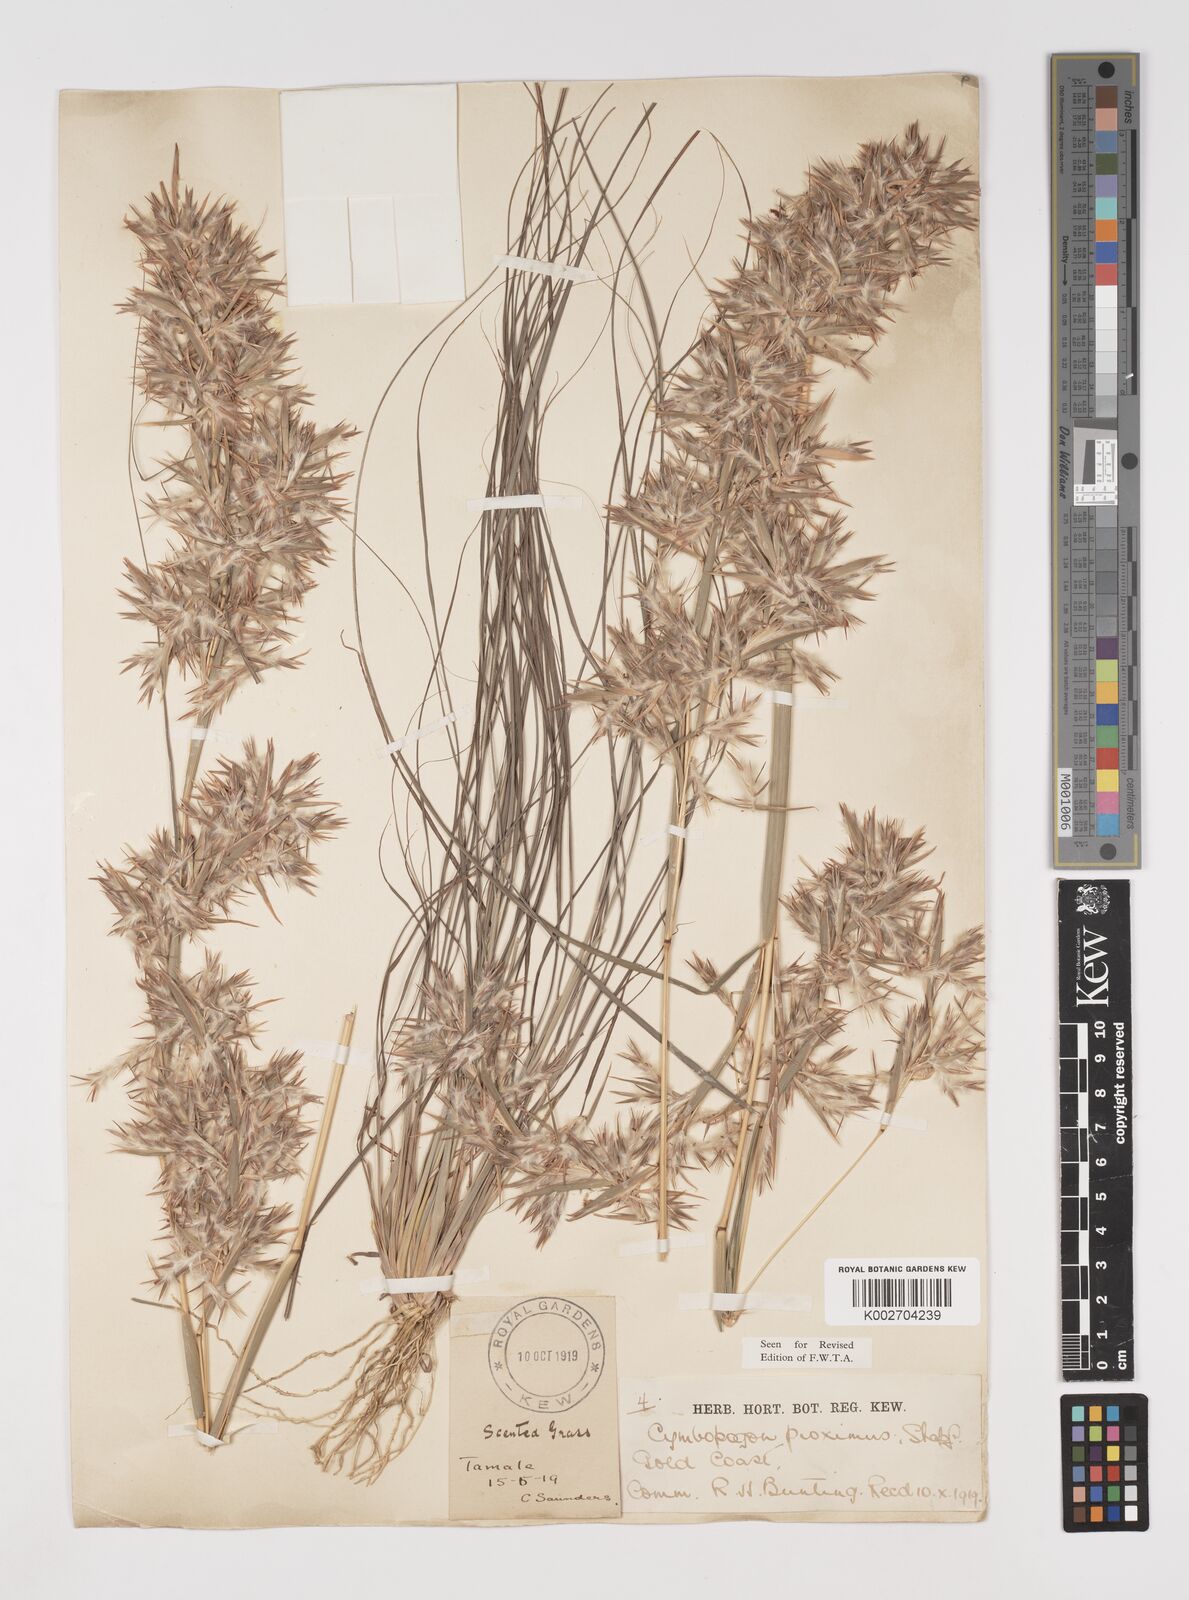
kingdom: Plantae
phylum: Tracheophyta
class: Liliopsida
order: Poales
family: Poaceae
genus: Cymbopogon
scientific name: Cymbopogon schoenanthus
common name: Geranium grass
